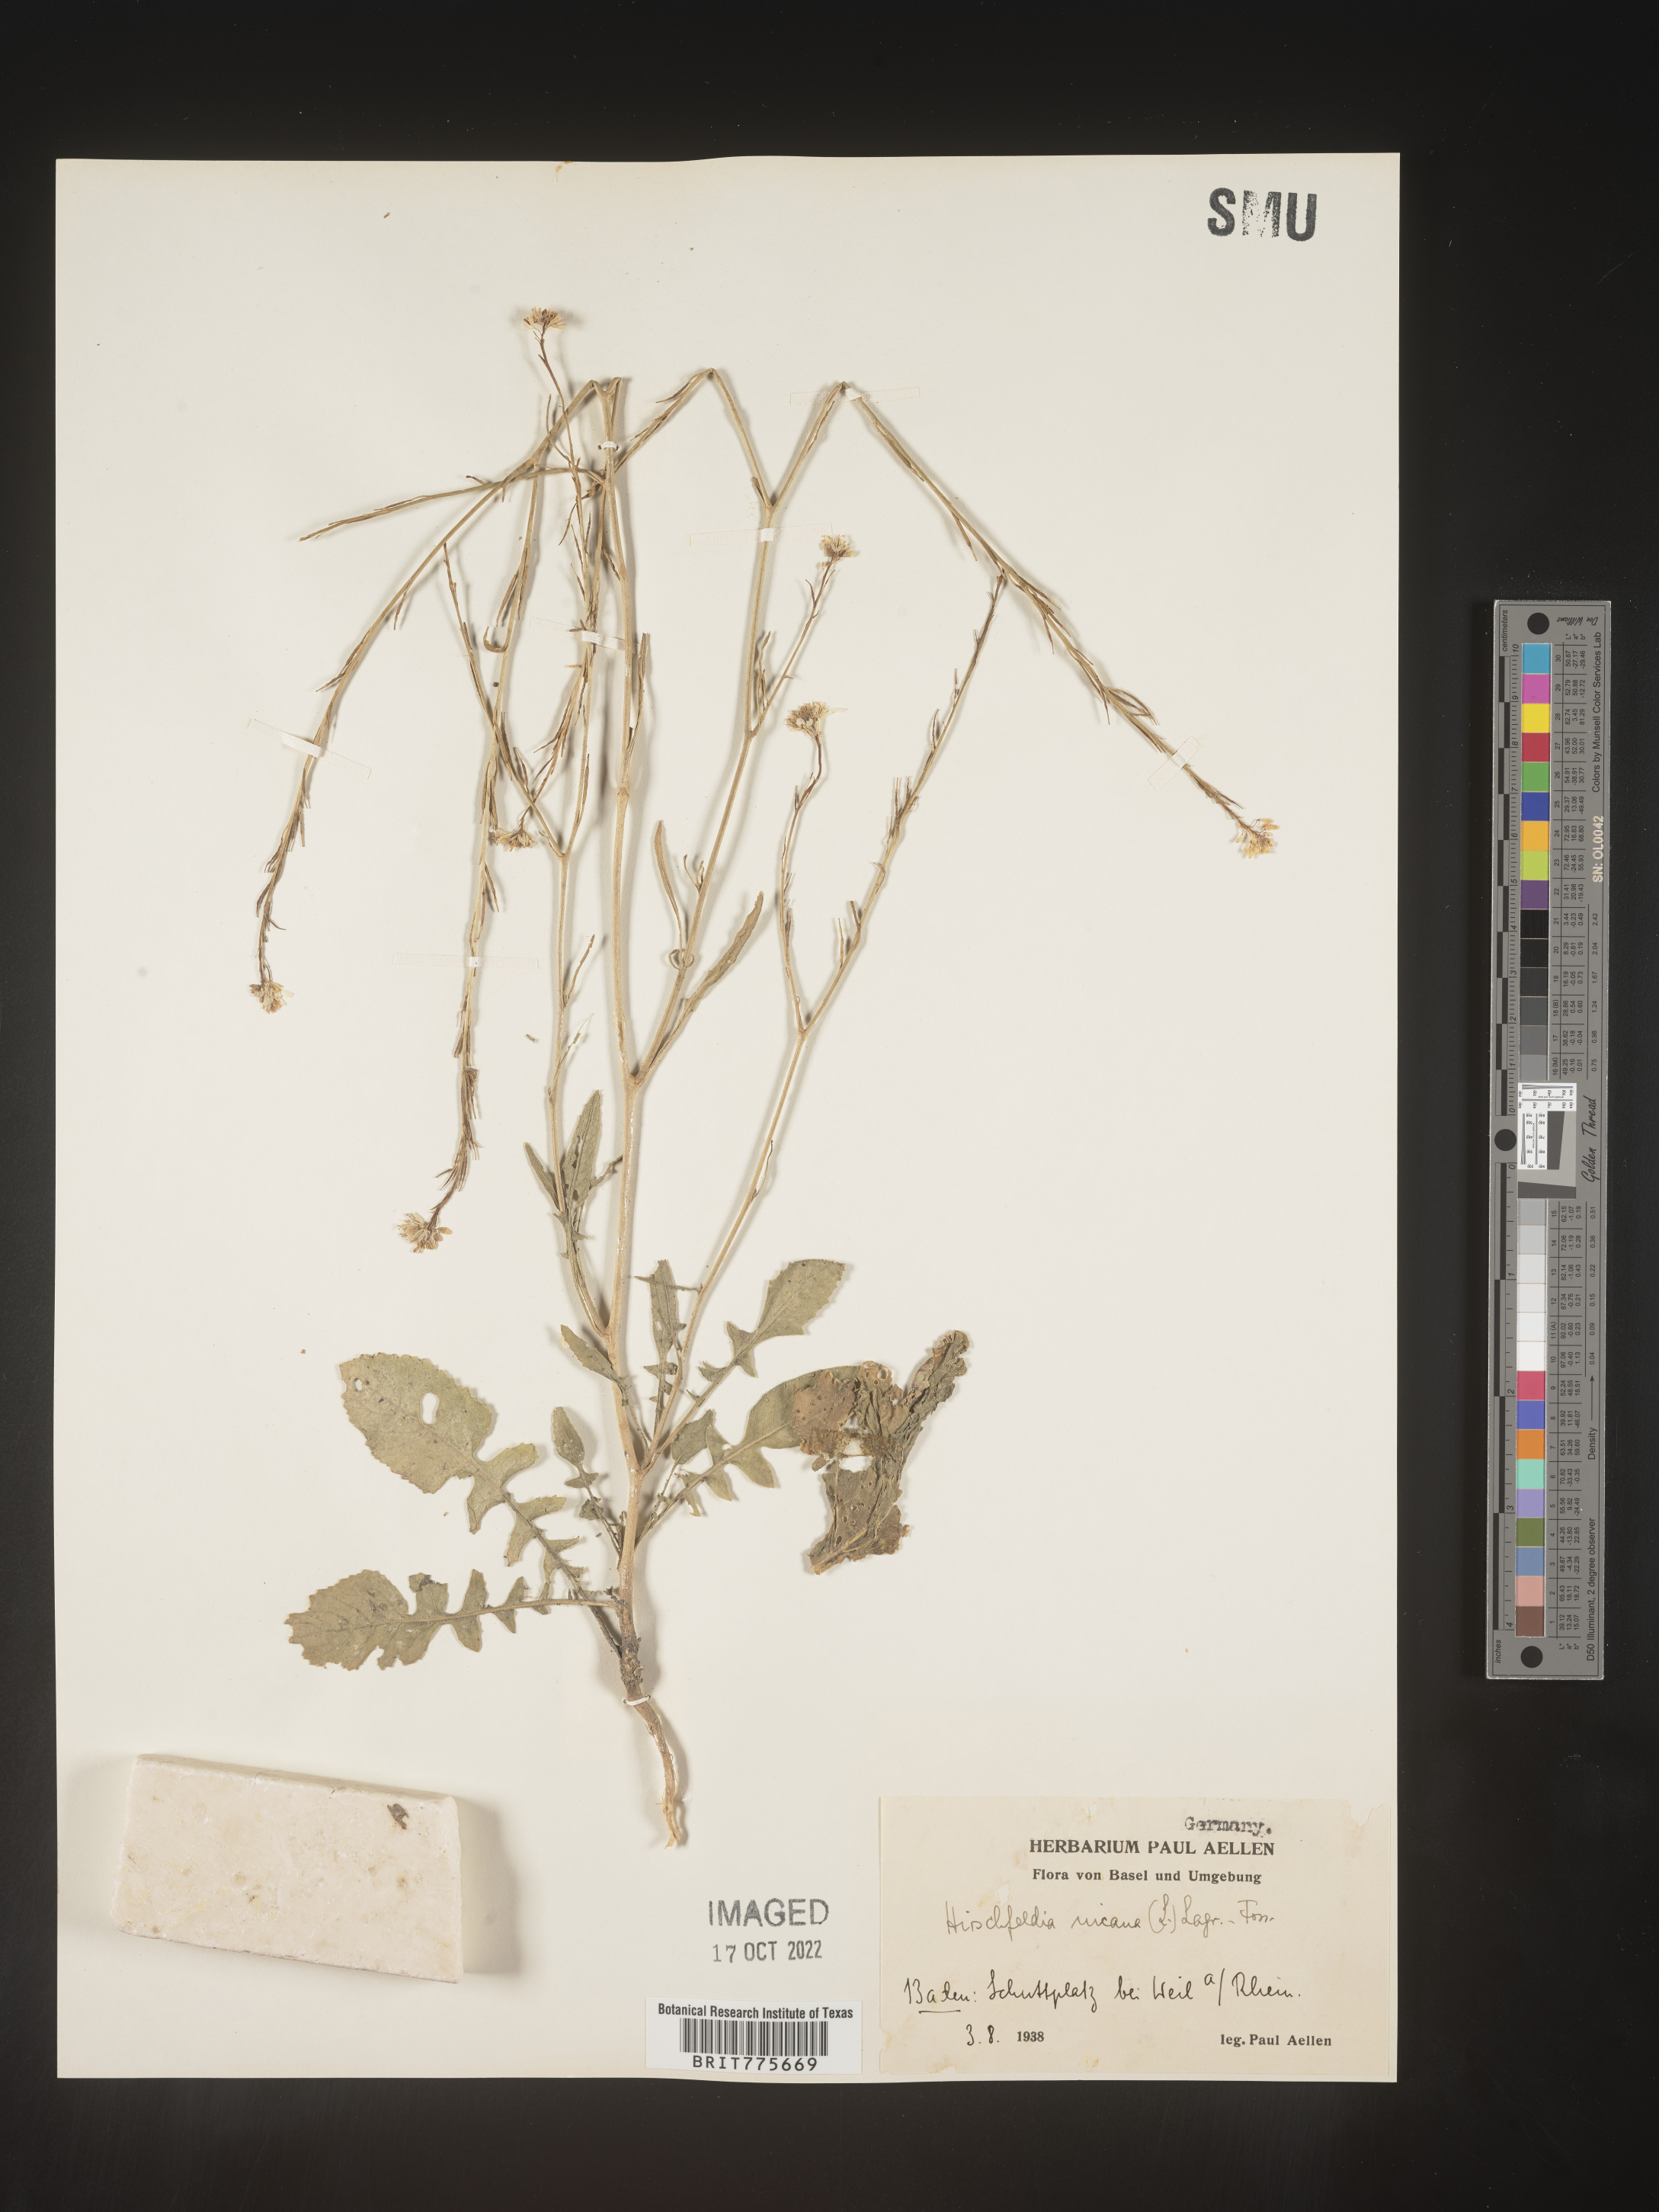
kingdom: Plantae
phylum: Tracheophyta
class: Magnoliopsida
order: Brassicales
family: Brassicaceae
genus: Hirschfeldia
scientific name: Hirschfeldia
